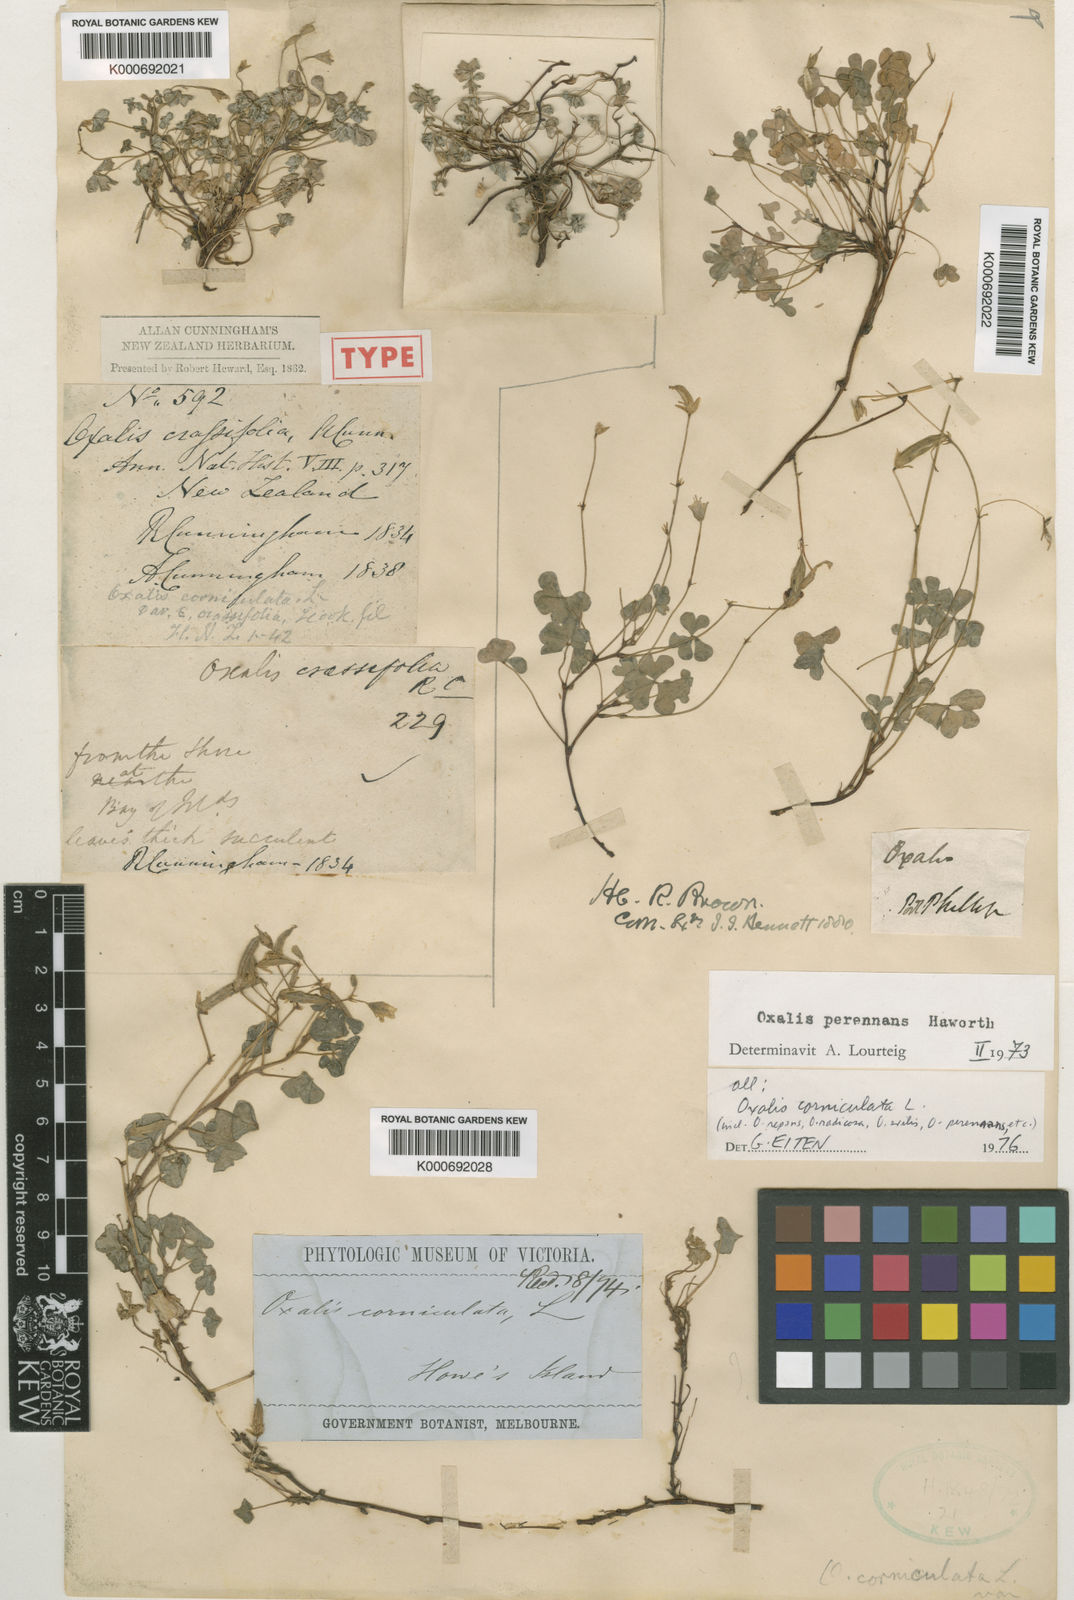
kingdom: Plantae
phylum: Tracheophyta
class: Magnoliopsida
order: Oxalidales
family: Oxalidaceae
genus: Oxalis
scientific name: Oxalis corniculata
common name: Procumbent yellow-sorrel
